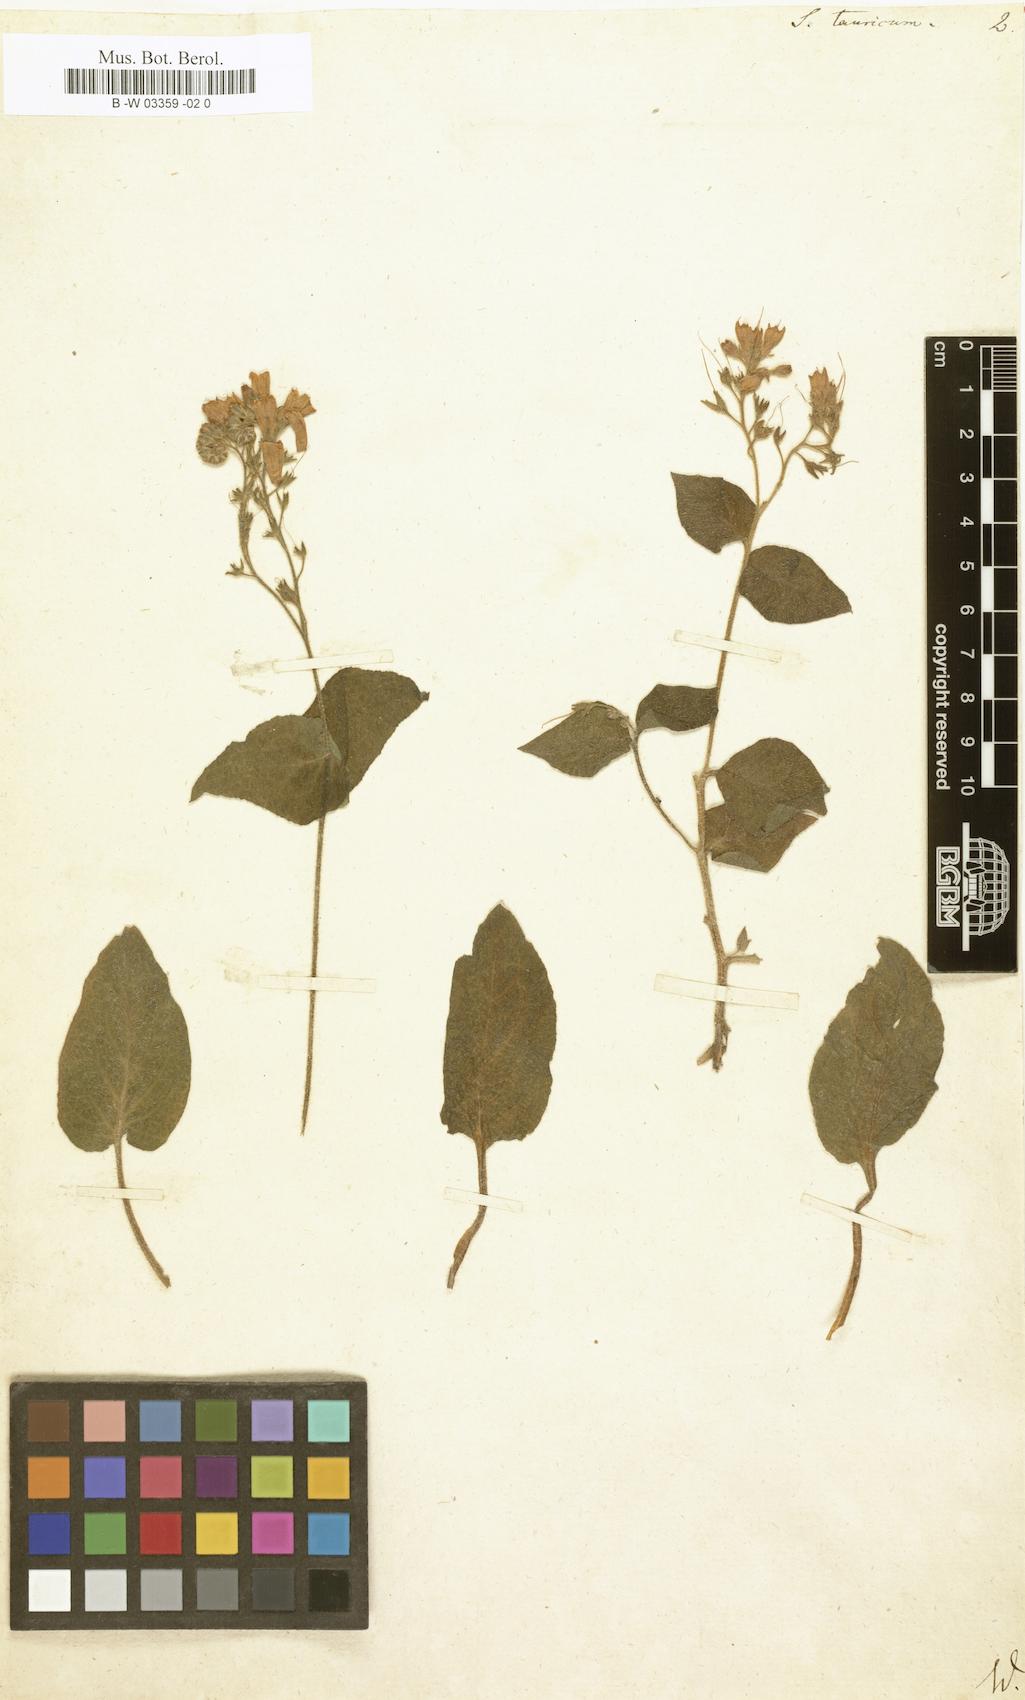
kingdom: Plantae
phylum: Tracheophyta
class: Magnoliopsida
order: Boraginales
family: Boraginaceae
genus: Symphytum
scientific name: Symphytum tauricum
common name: Crimean comfrey
